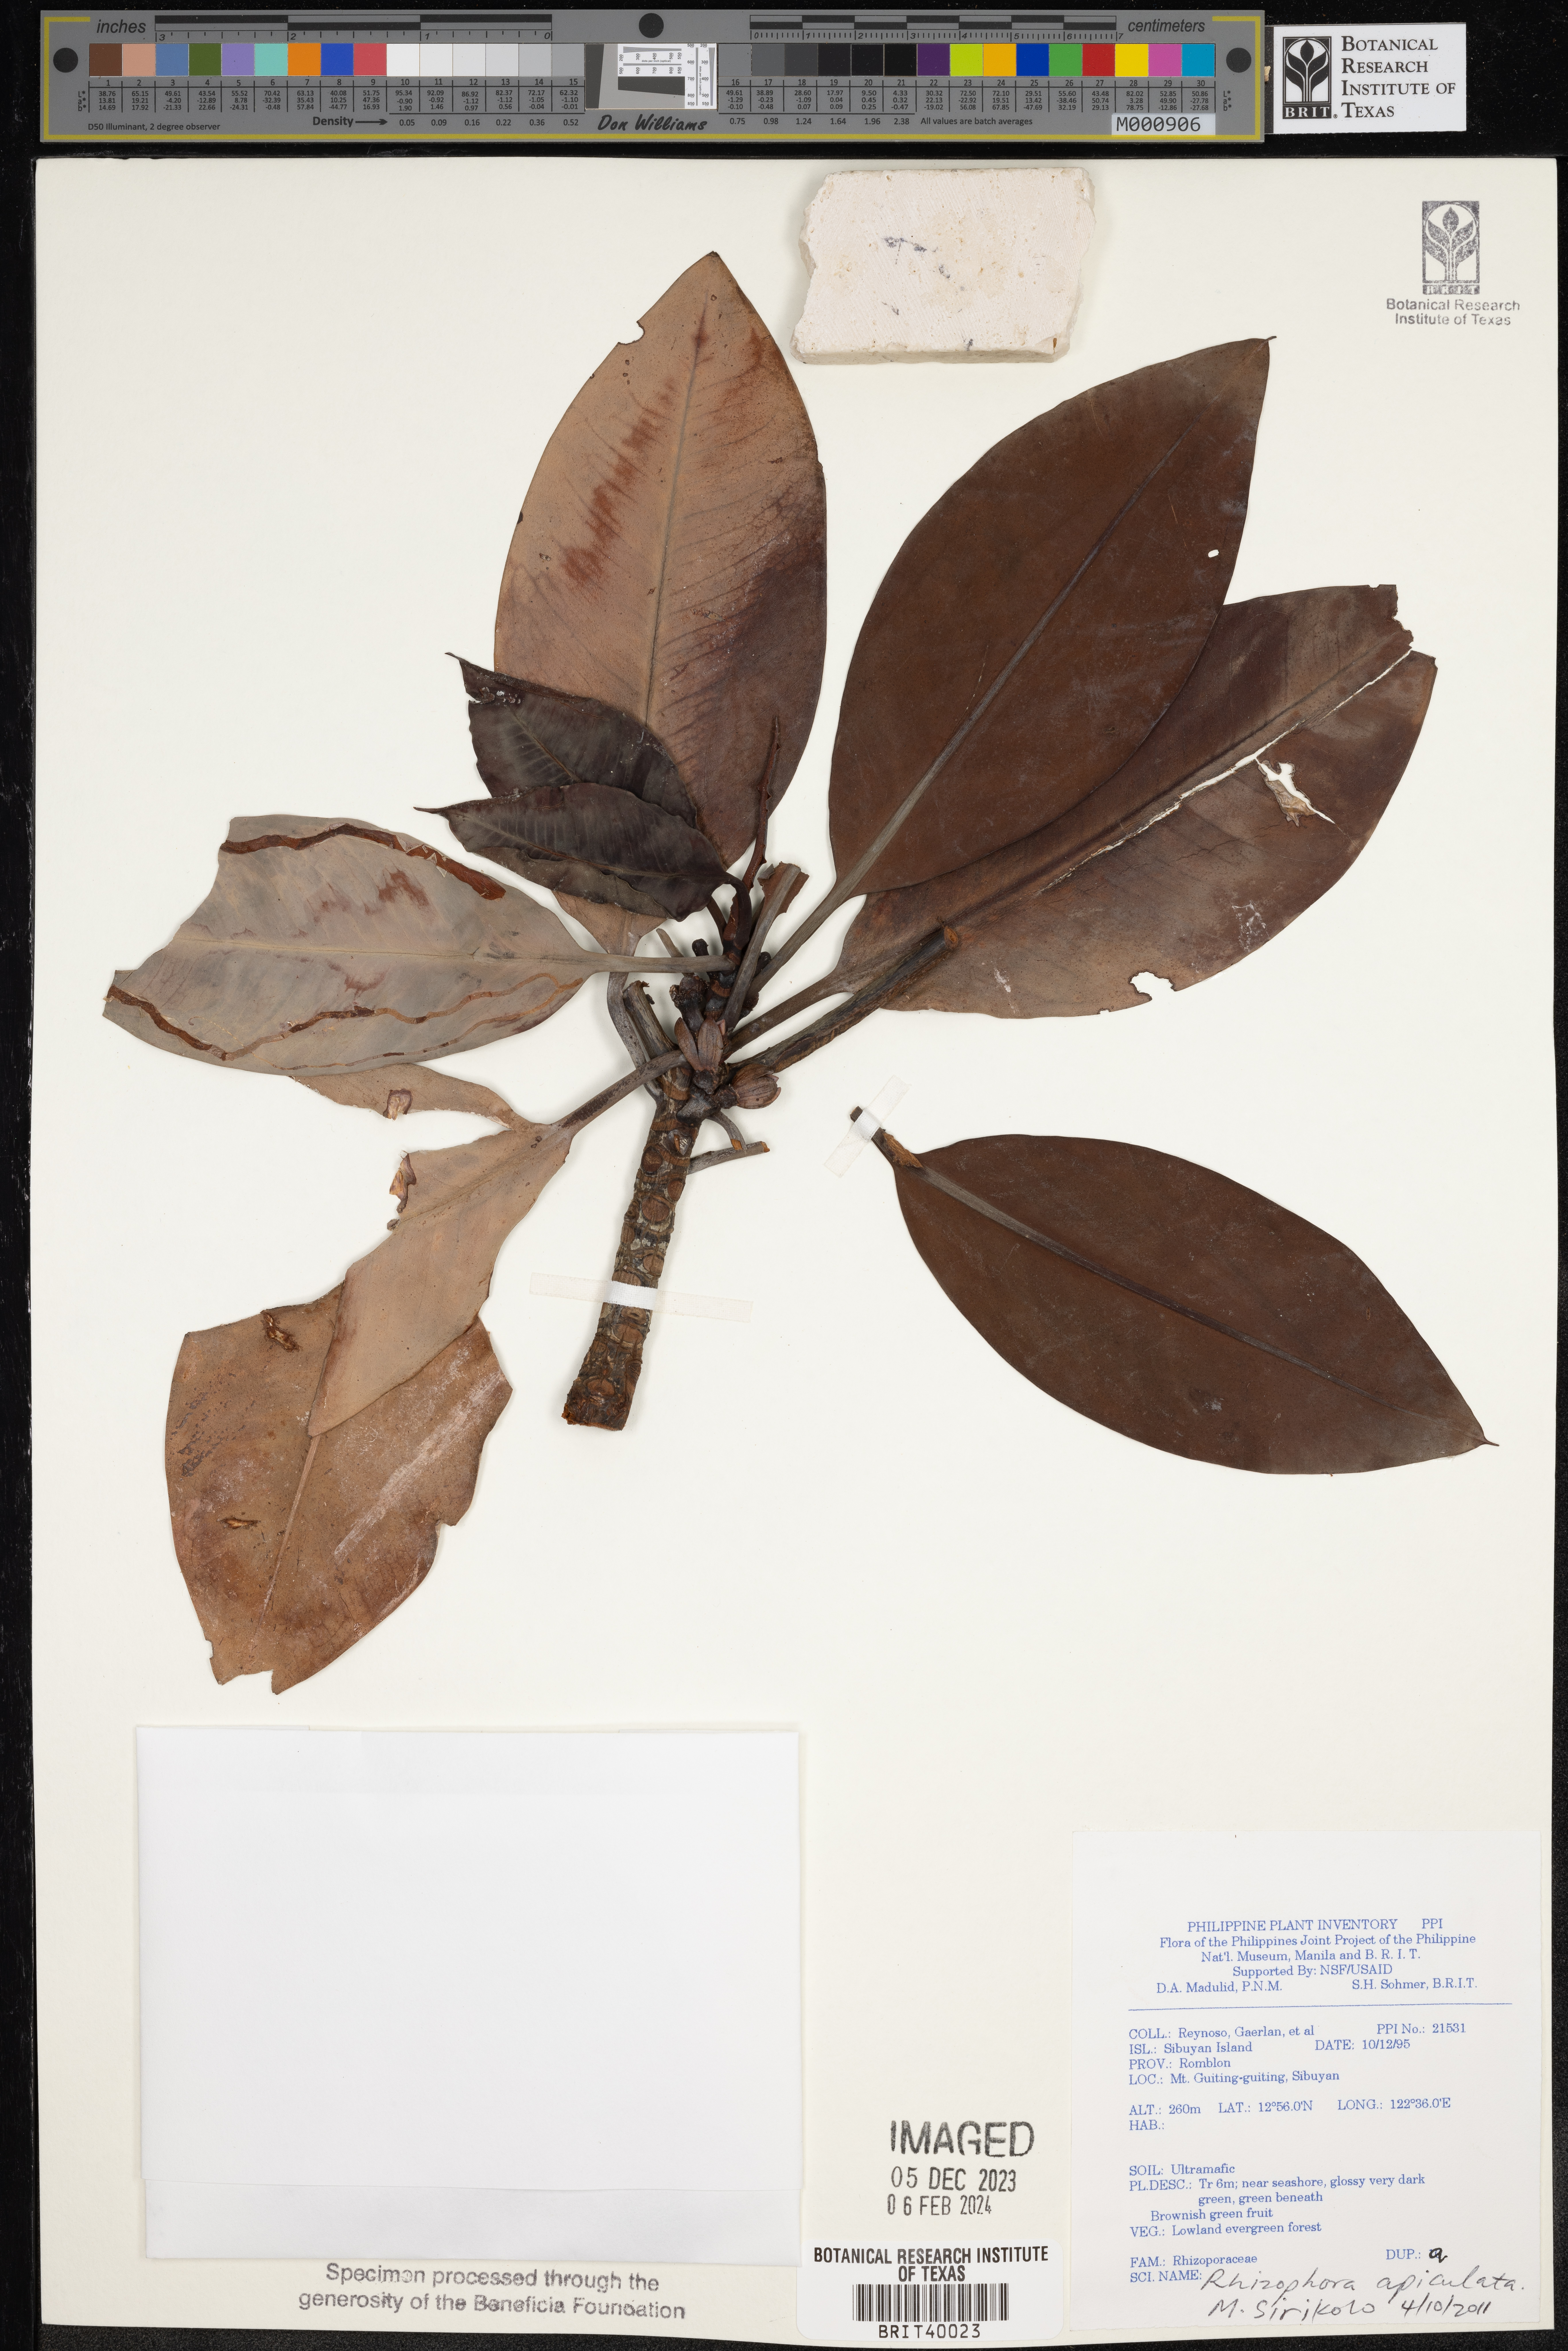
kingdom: Plantae
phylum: Tracheophyta
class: Magnoliopsida
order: Malpighiales
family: Rhizophoraceae
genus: Rhizophora
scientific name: Rhizophora apiculata
